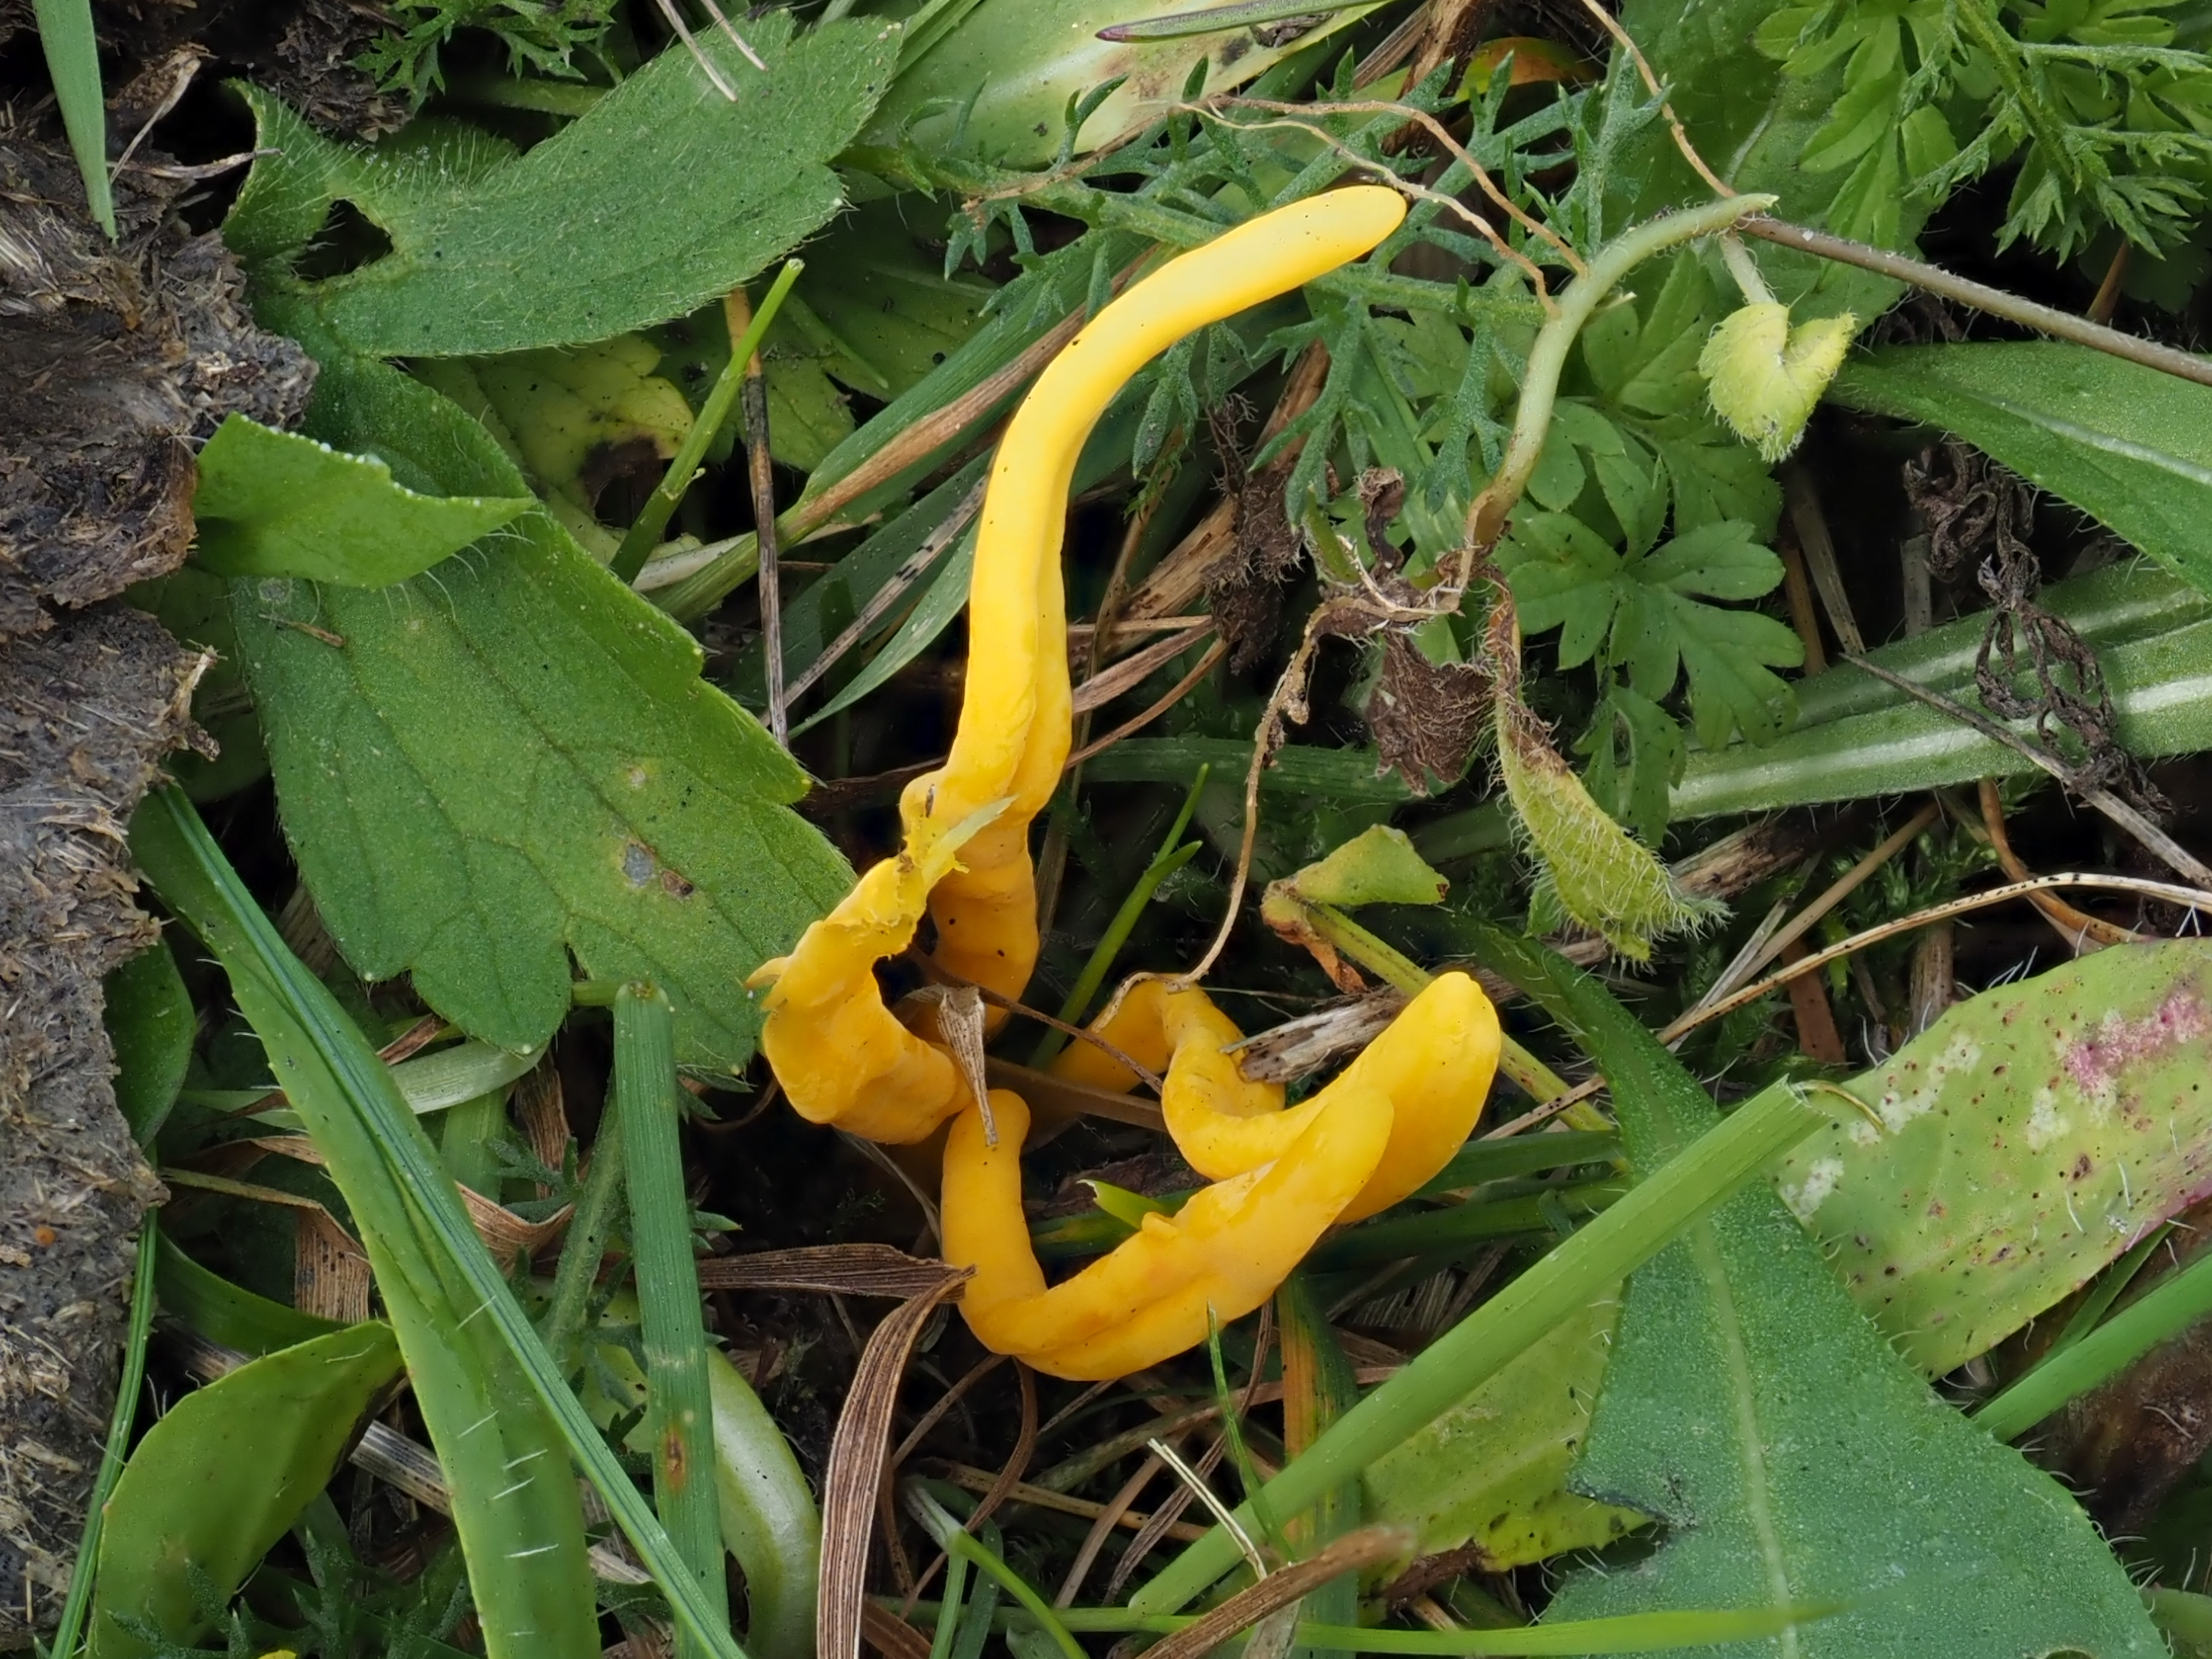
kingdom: Fungi
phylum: Basidiomycota
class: Agaricomycetes
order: Agaricales
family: Clavariaceae
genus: Clavulinopsis
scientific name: Clavulinopsis helvola
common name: Yellow club
